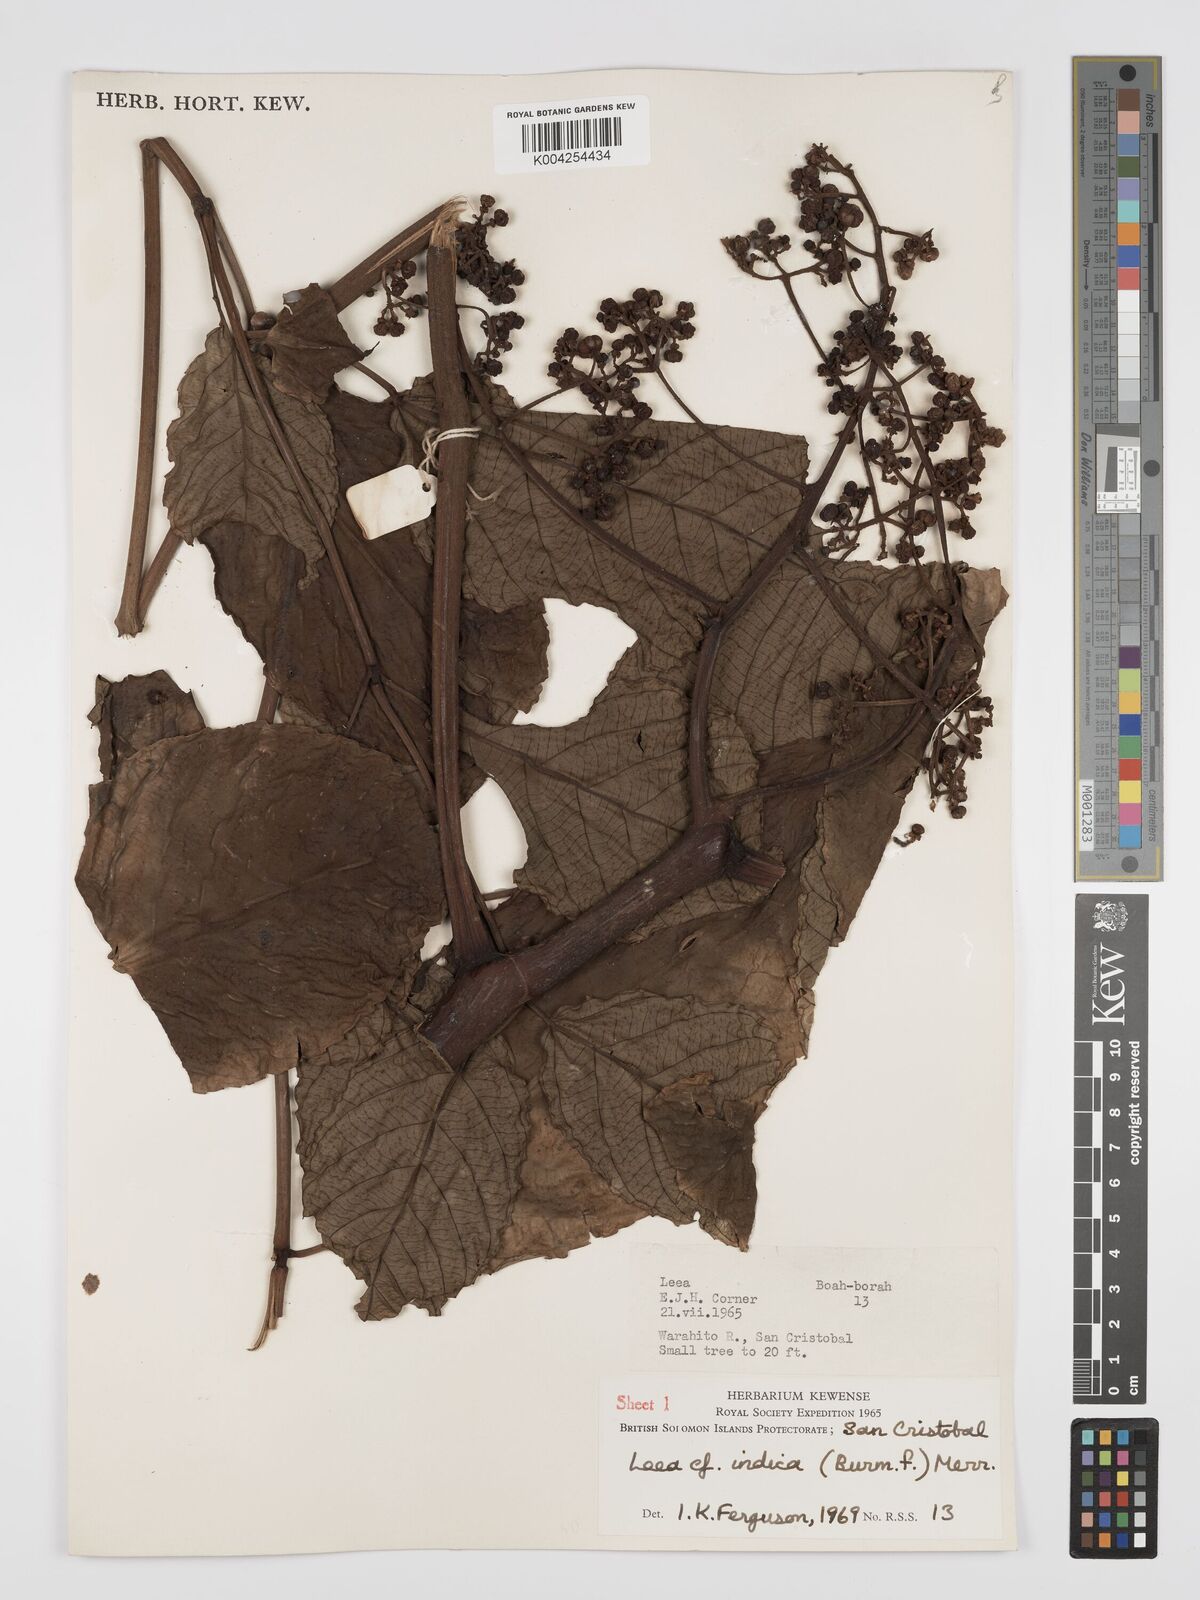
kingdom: Plantae
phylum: Tracheophyta
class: Magnoliopsida
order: Vitales
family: Vitaceae
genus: Leea
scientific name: Leea tetramera
